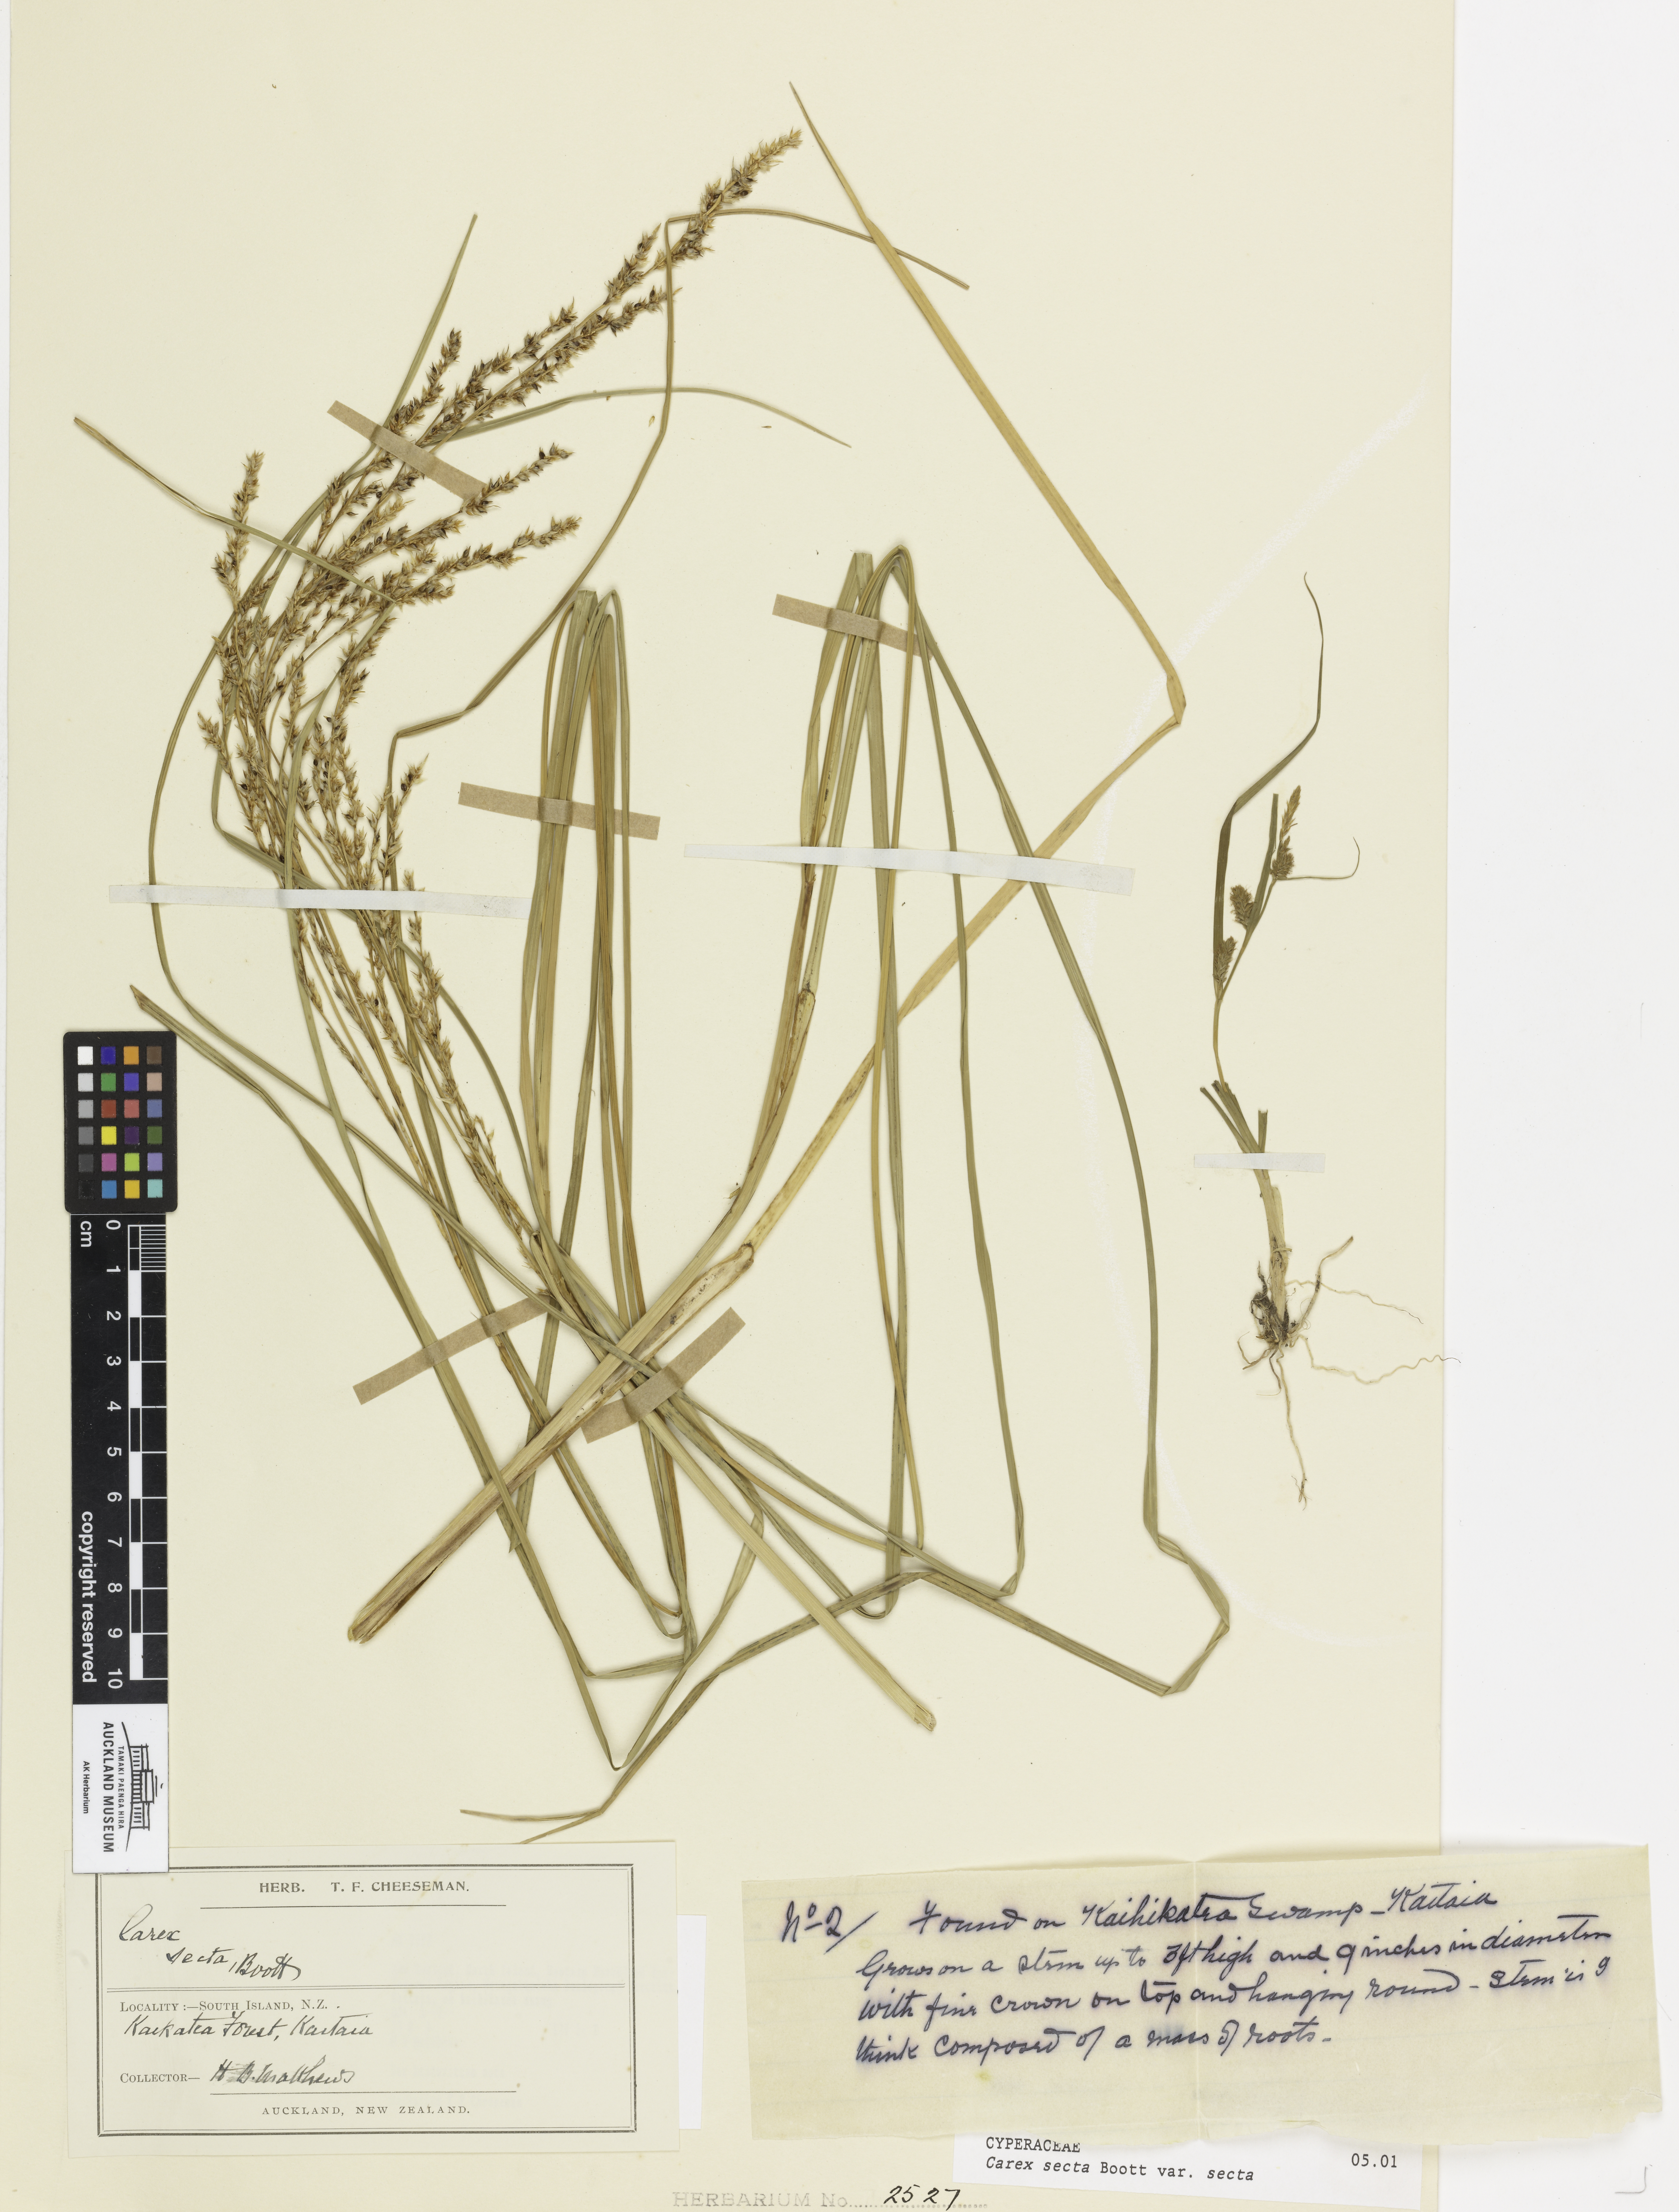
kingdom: Plantae
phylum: Tracheophyta
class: Liliopsida
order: Poales
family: Cyperaceae
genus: Carex
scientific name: Carex secta
